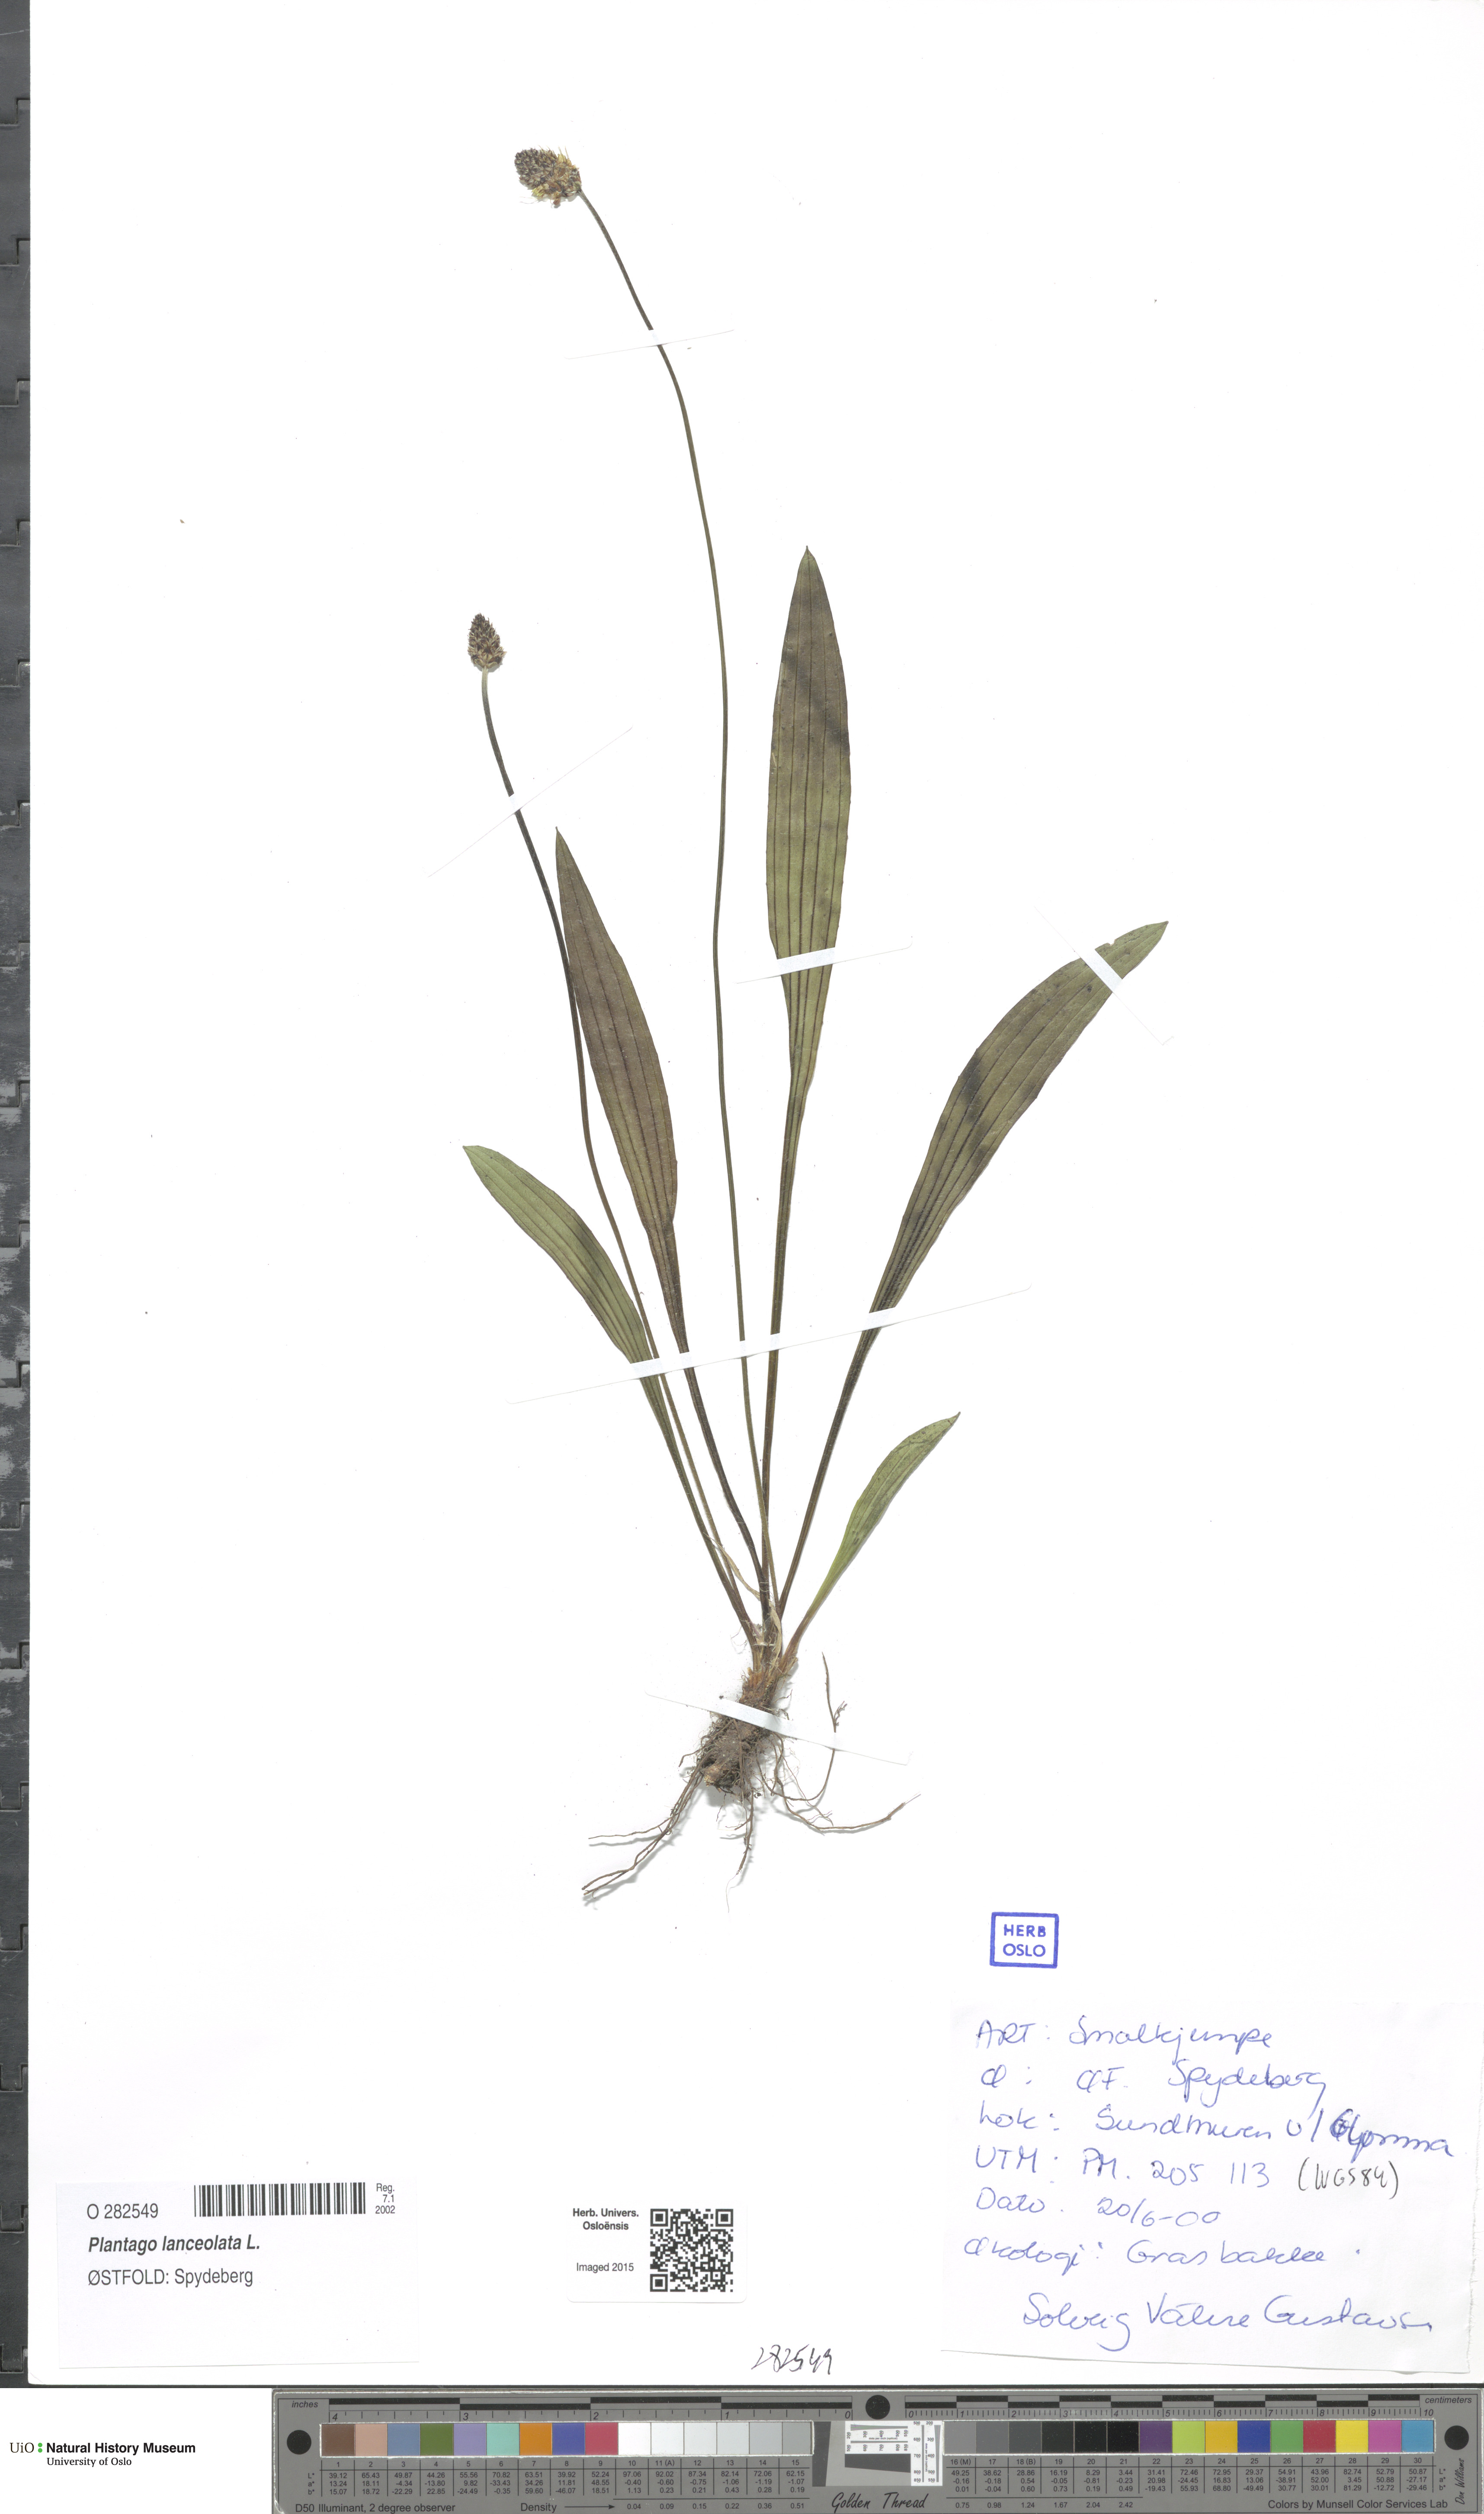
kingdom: Plantae
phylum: Tracheophyta
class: Magnoliopsida
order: Lamiales
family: Plantaginaceae
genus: Plantago
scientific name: Plantago lanceolata
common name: Ribwort plantain
